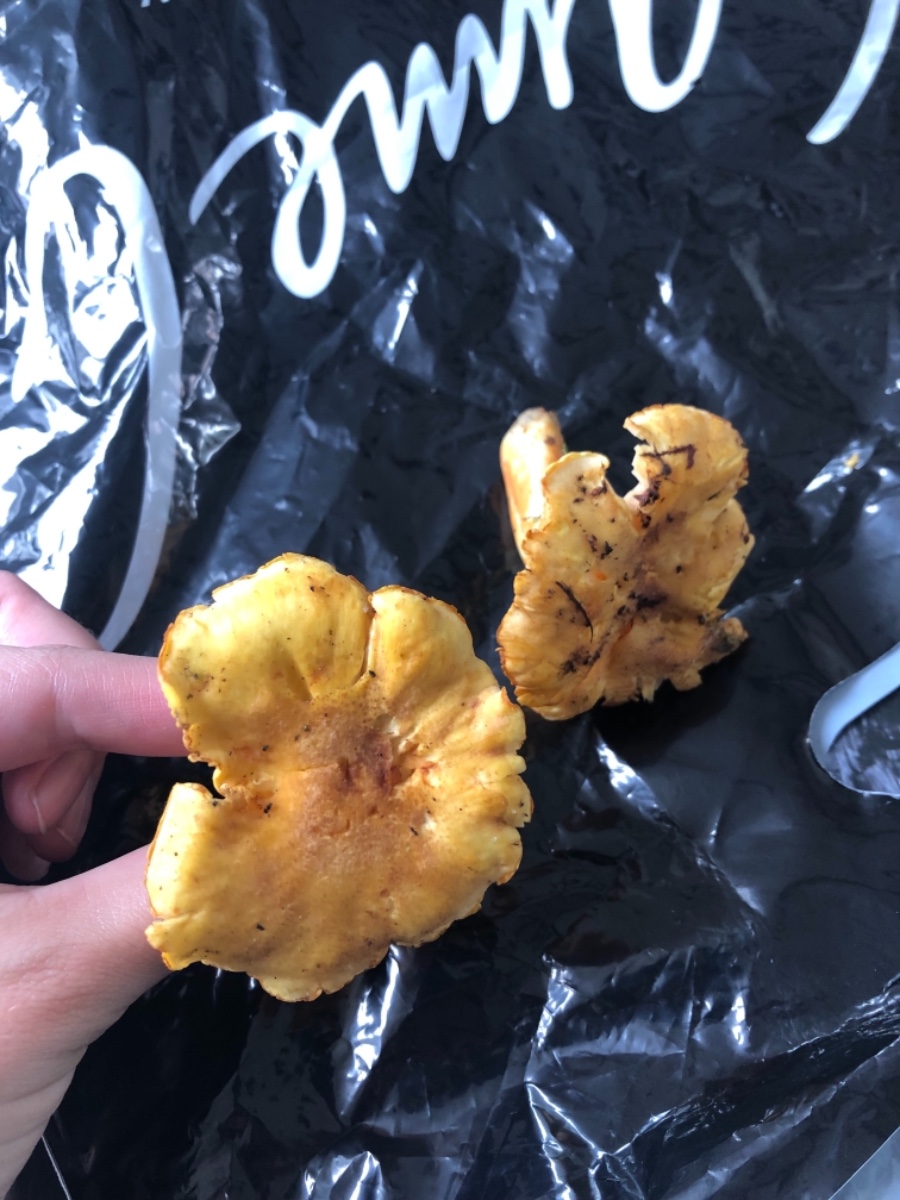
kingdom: Fungi
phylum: Basidiomycota
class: Agaricomycetes
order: Cantharellales
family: Hydnaceae
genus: Cantharellus
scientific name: Cantharellus amethysteus
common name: ametyst-kantarel
